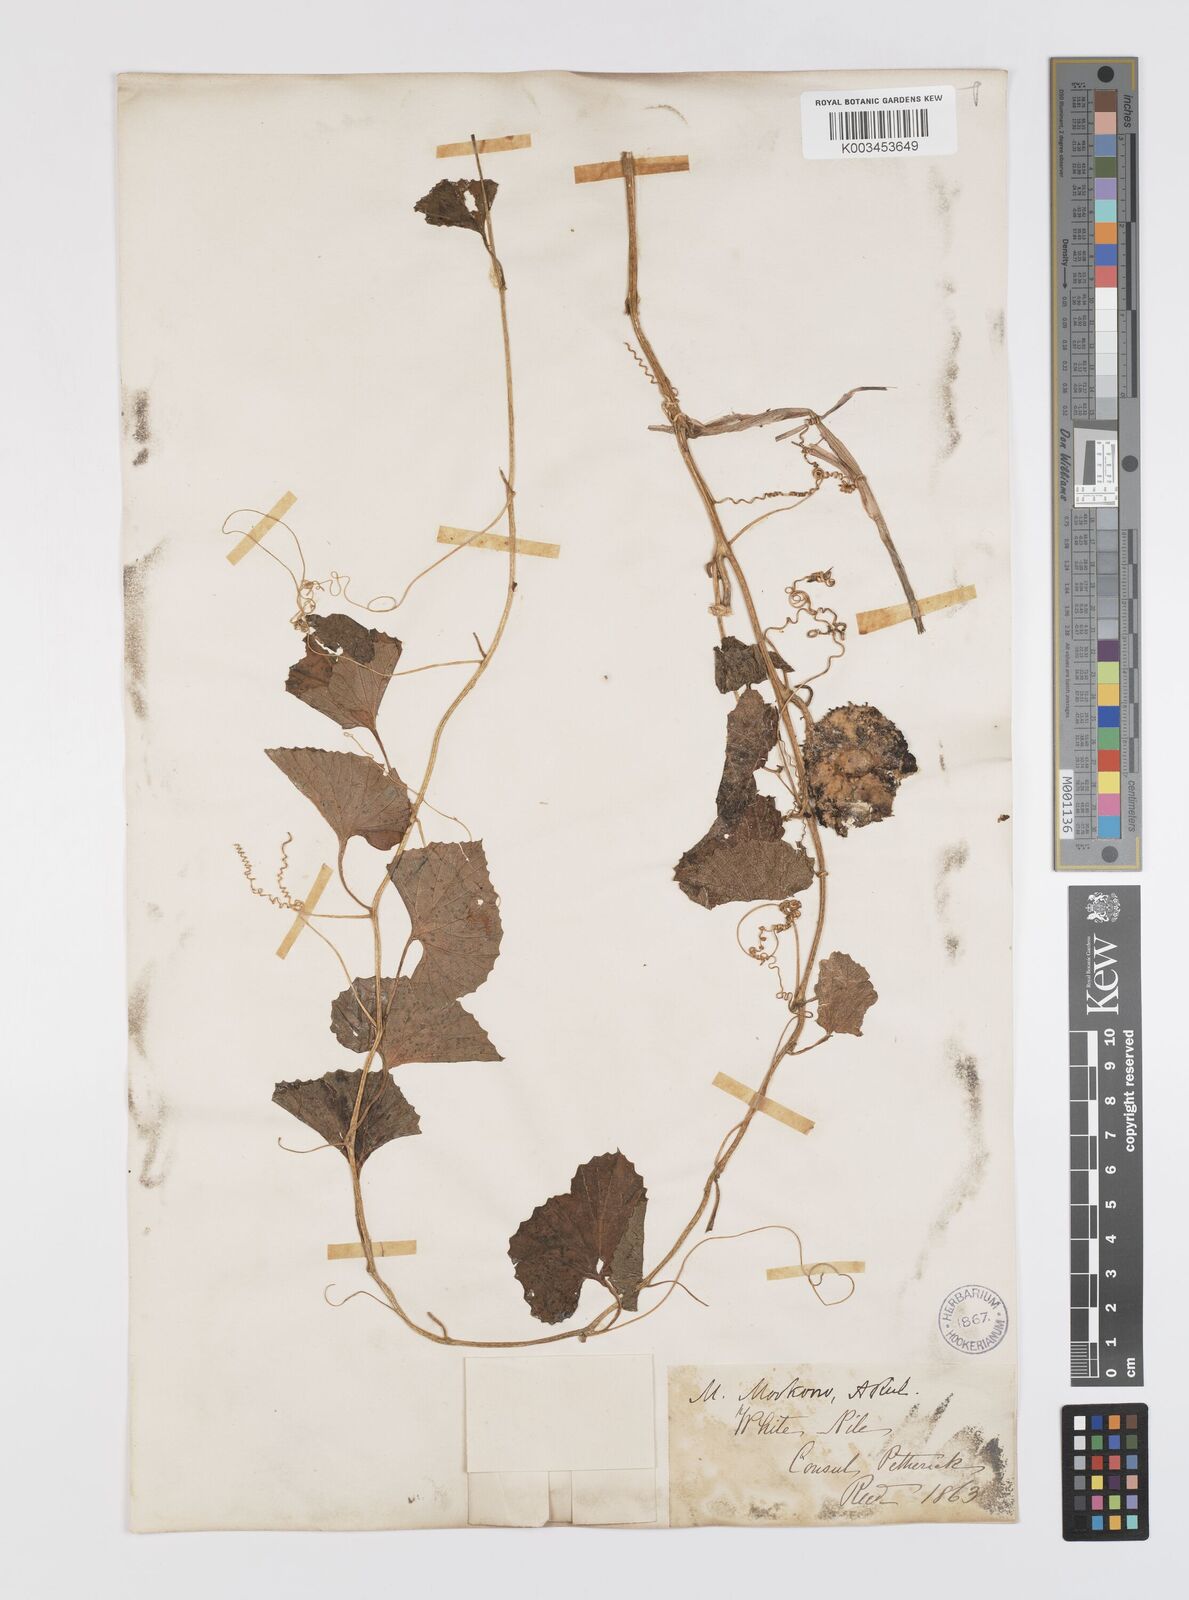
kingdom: Plantae
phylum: Tracheophyta
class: Magnoliopsida
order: Cucurbitales
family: Cucurbitaceae
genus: Momordica
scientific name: Momordica foetida
